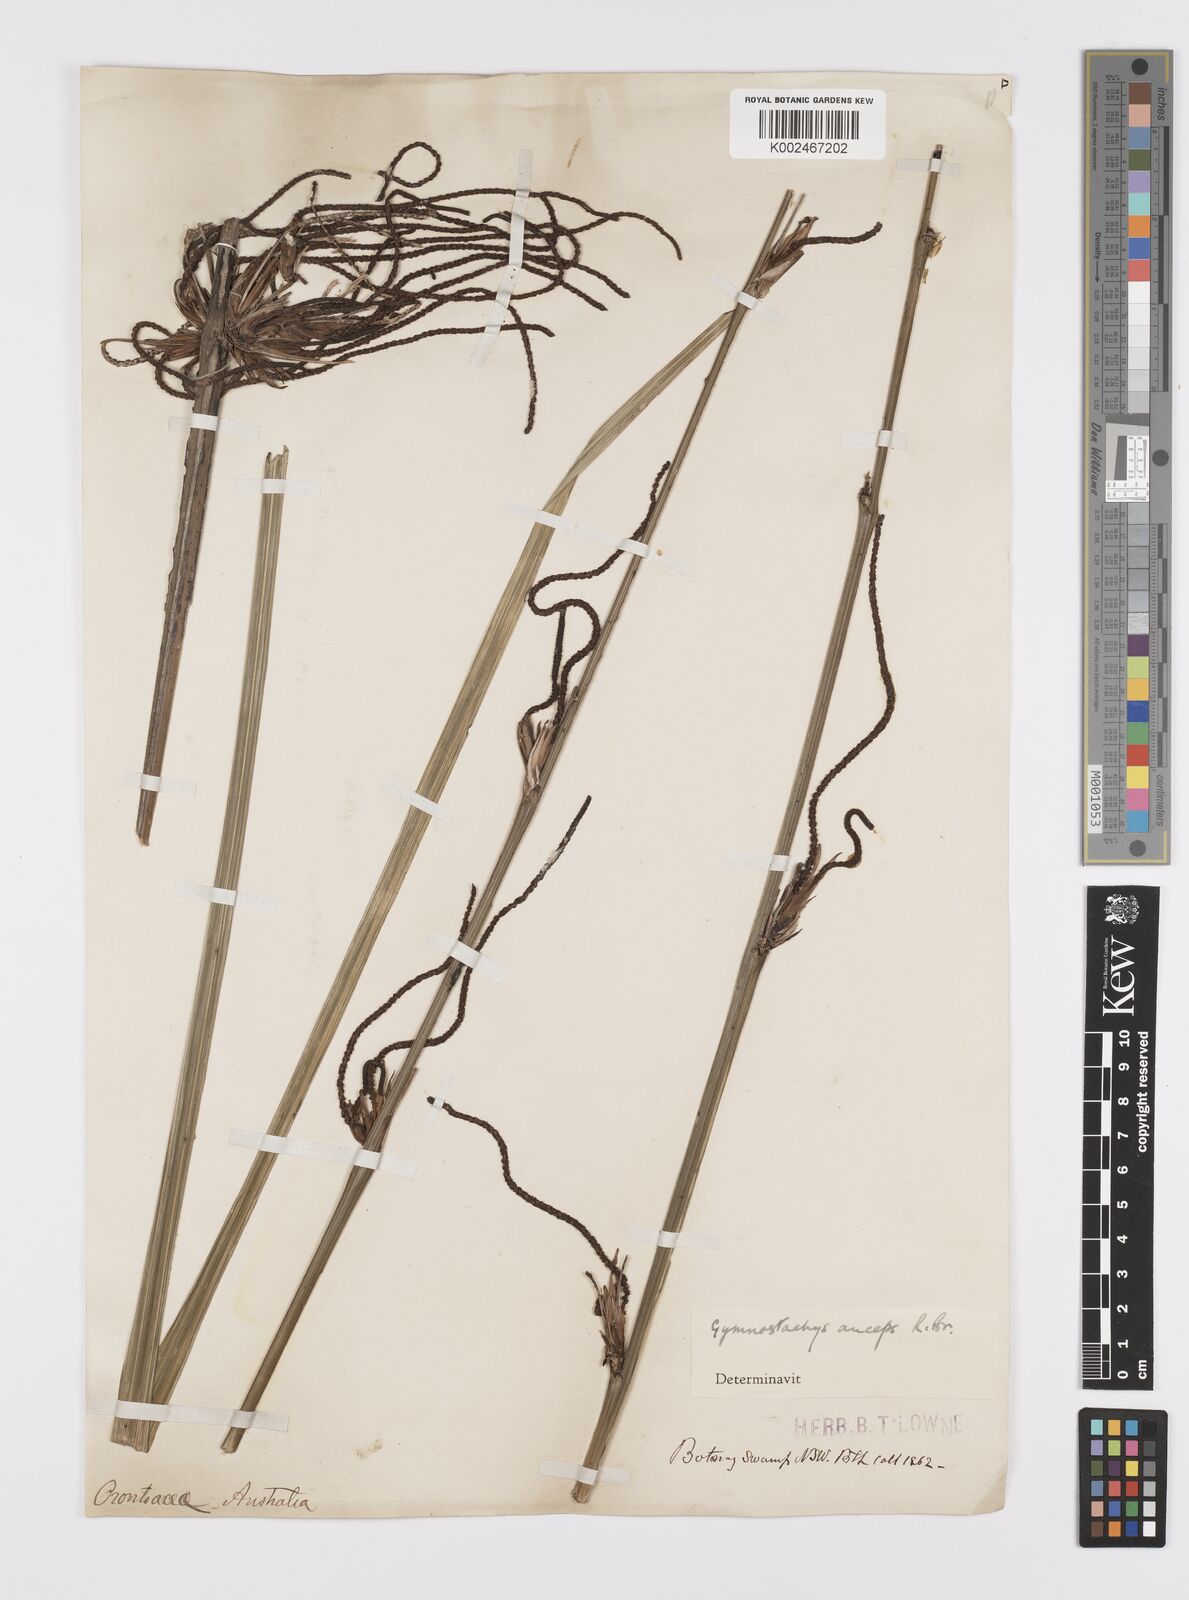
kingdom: Plantae
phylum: Tracheophyta
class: Liliopsida
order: Alismatales
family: Araceae
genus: Gymnostachys
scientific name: Gymnostachys anceps
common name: Settler's-flax
